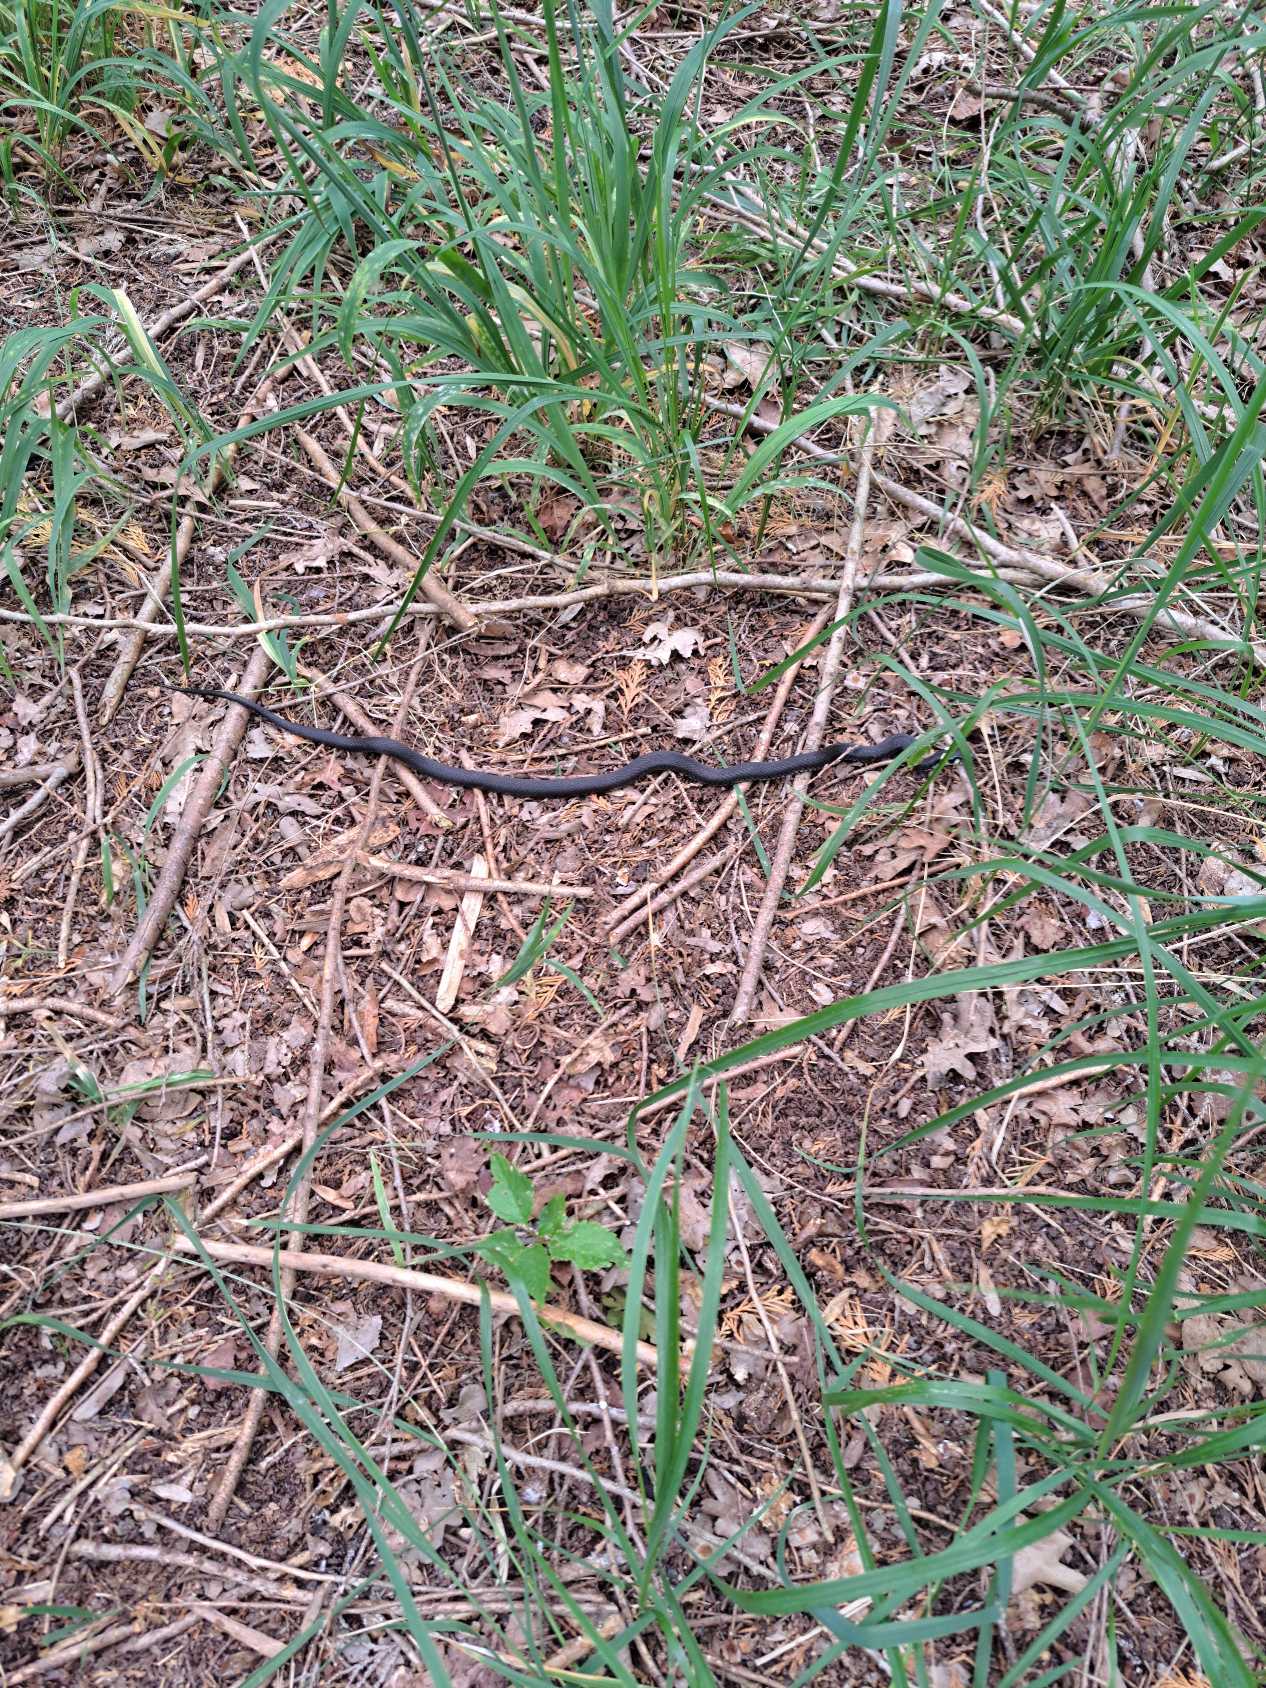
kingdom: Animalia
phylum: Chordata
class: Squamata
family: Colubridae
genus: Natrix
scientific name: Natrix natrix
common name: Snog
